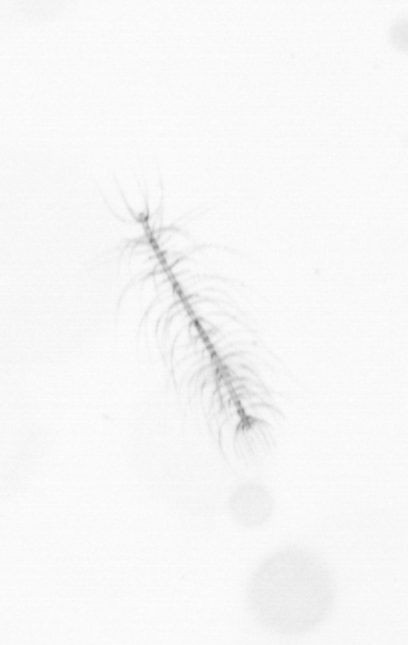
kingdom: Chromista
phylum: Ochrophyta
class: Bacillariophyceae
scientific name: Bacillariophyceae
